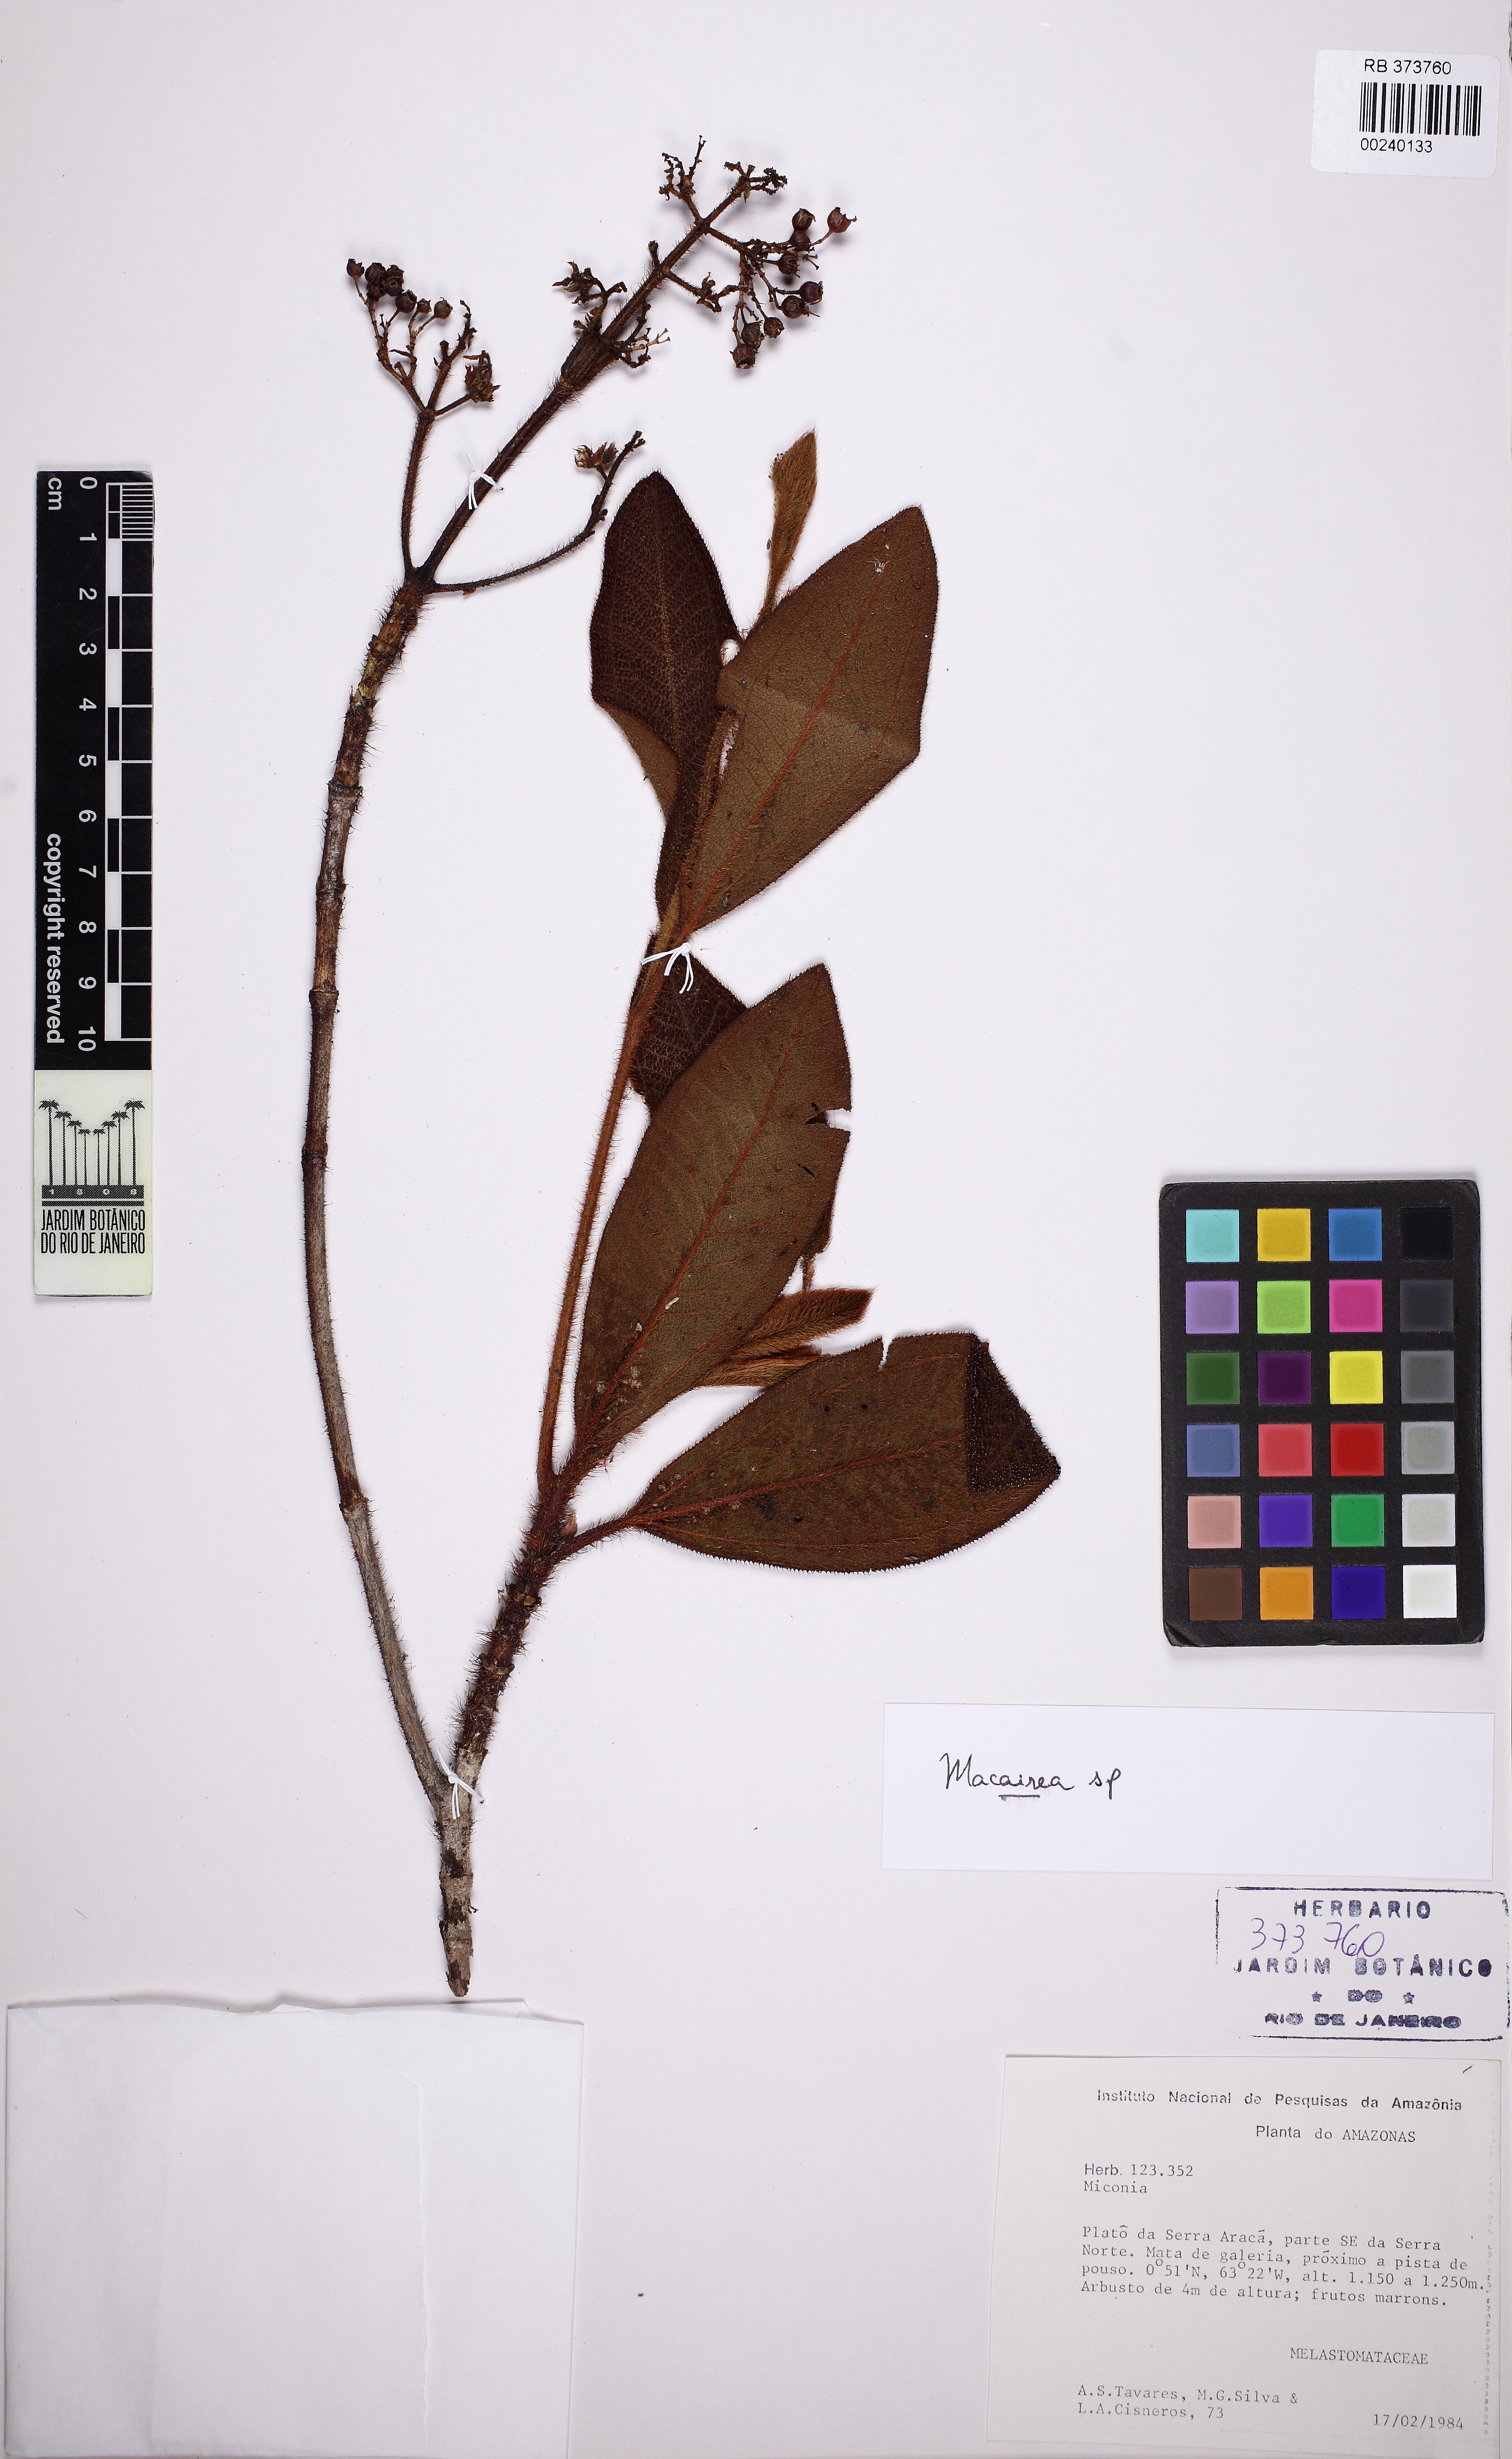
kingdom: Plantae
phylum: Tracheophyta
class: Magnoliopsida
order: Myrtales
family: Melastomataceae
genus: Macairea
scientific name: Macairea pachyphylla
